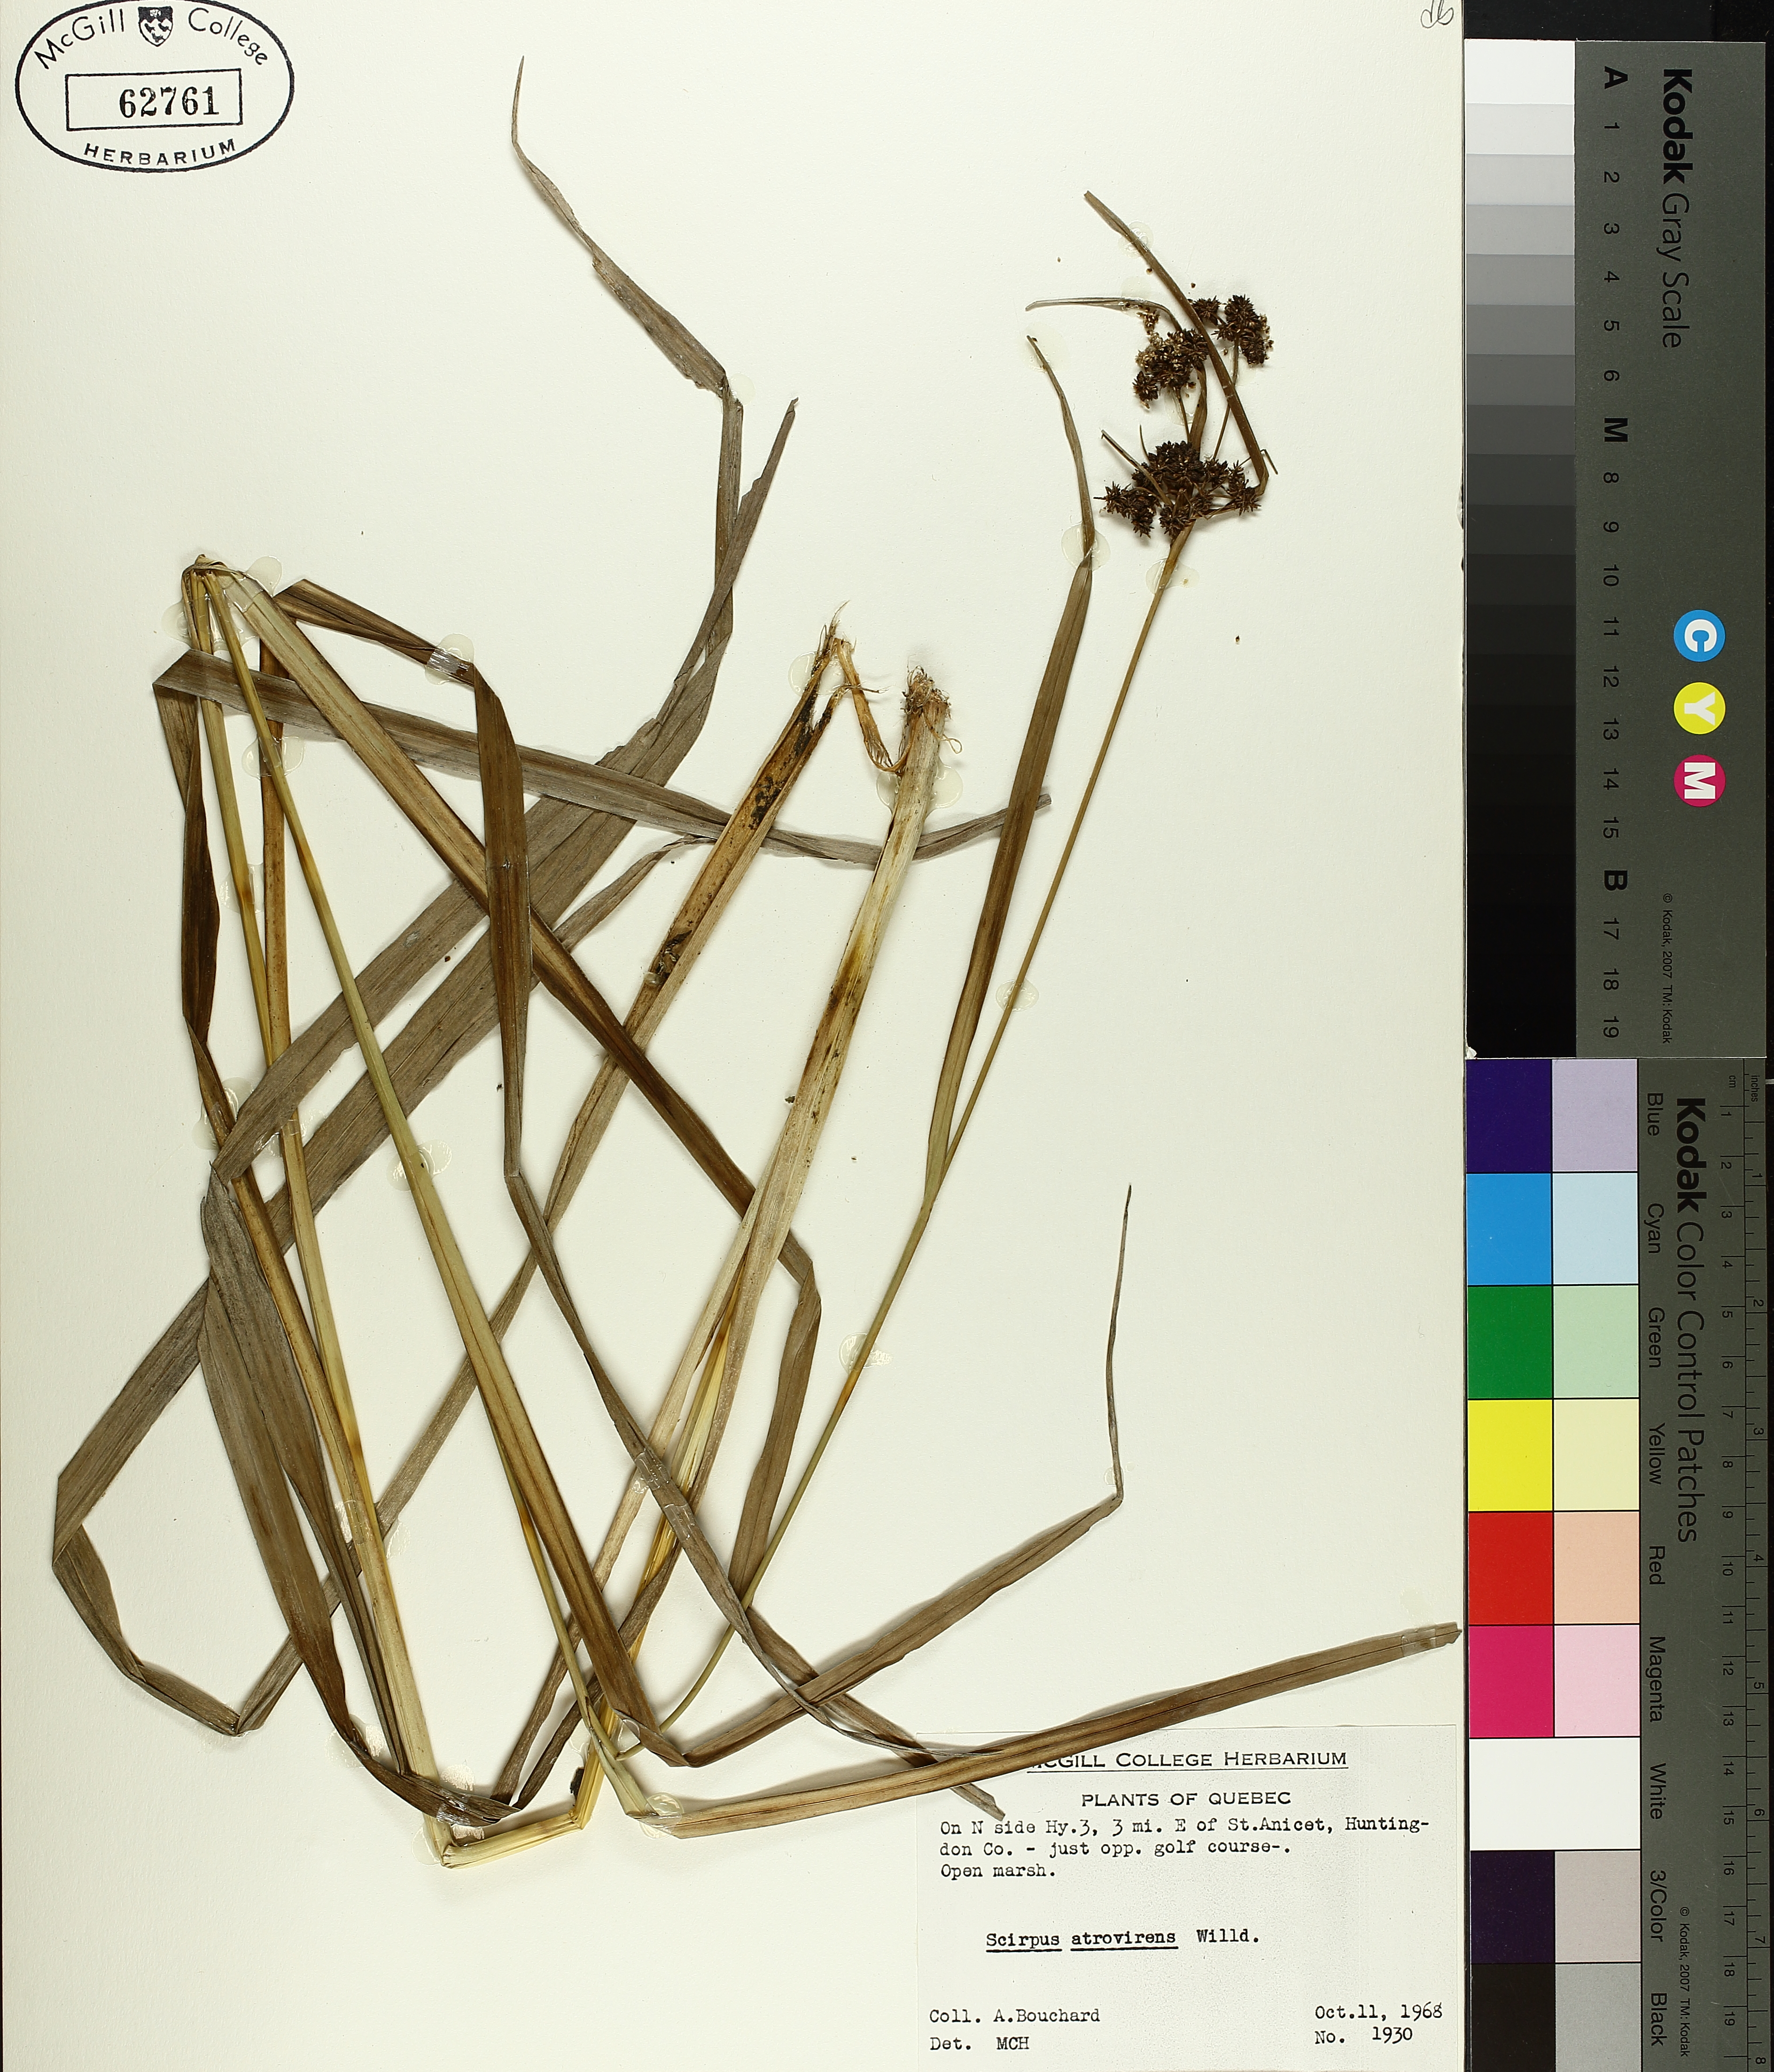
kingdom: Plantae
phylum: Tracheophyta
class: Liliopsida
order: Poales
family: Cyperaceae
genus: Scirpus
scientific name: Scirpus atrovirens
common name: Black bulrush
